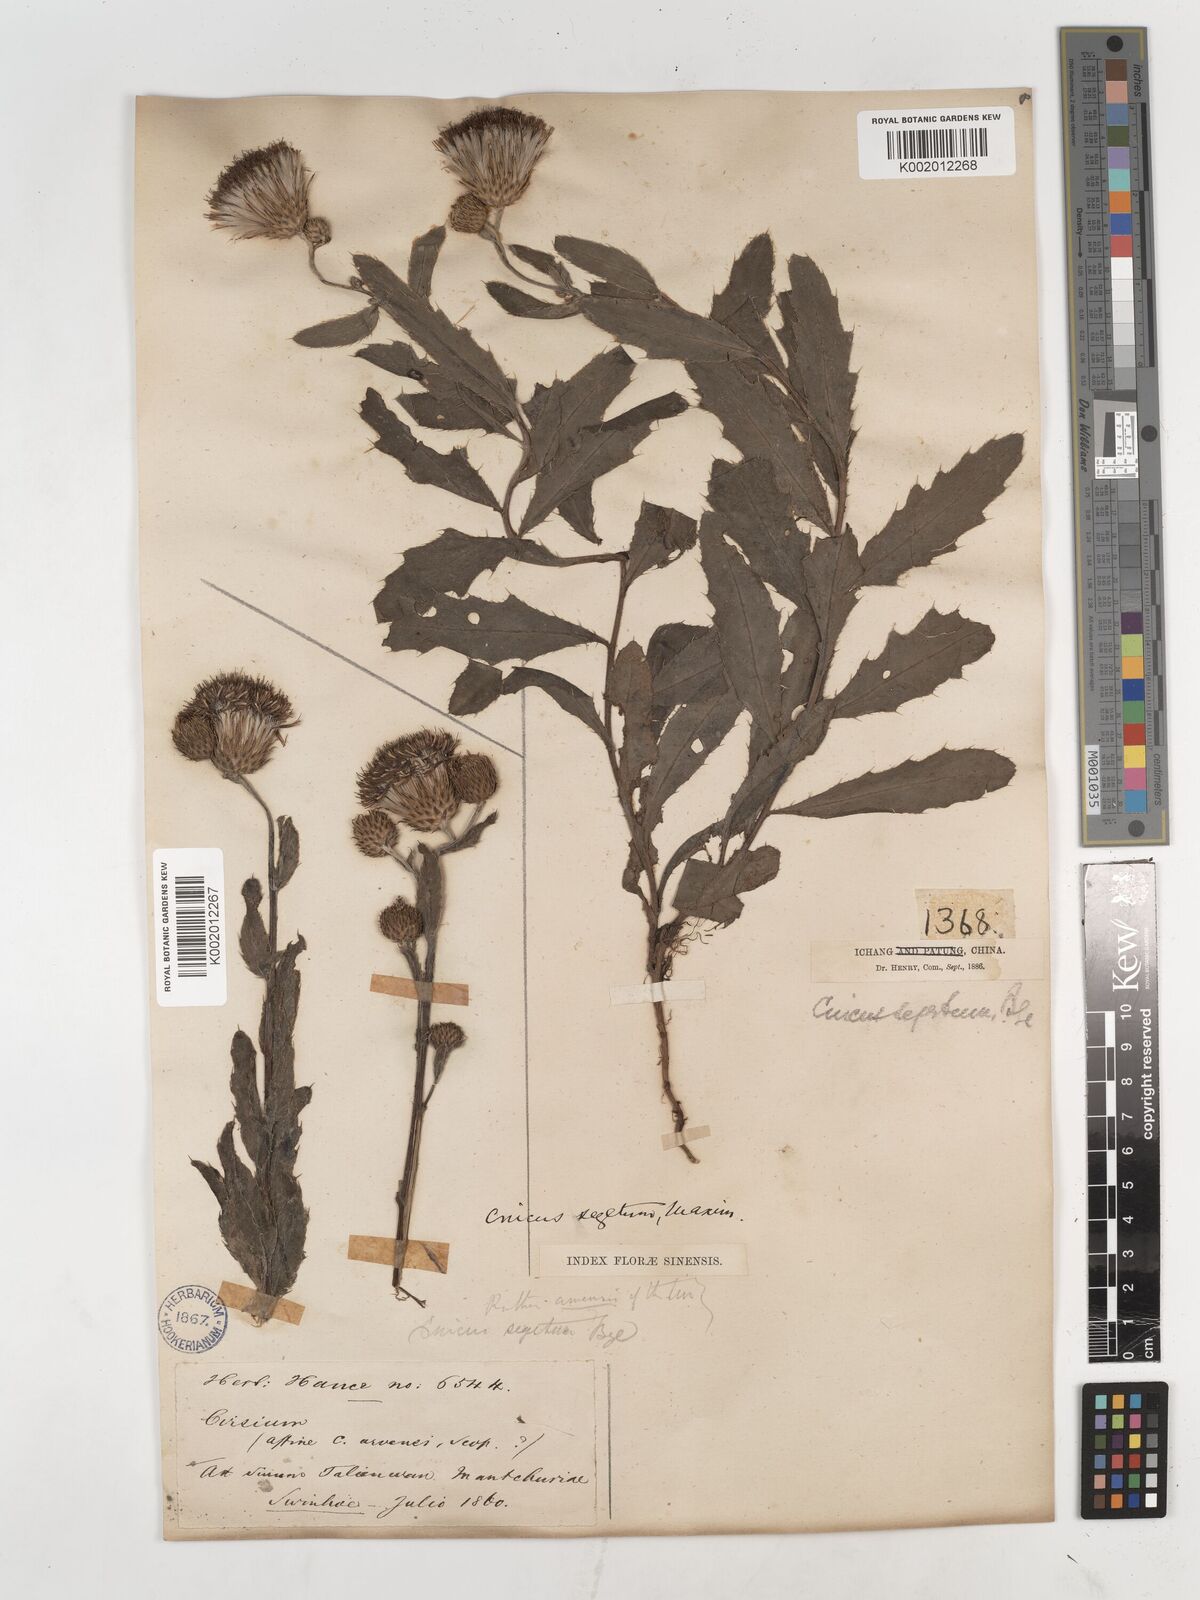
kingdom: Plantae
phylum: Tracheophyta
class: Magnoliopsida
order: Asterales
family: Asteraceae
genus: Cirsium
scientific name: Cirsium
